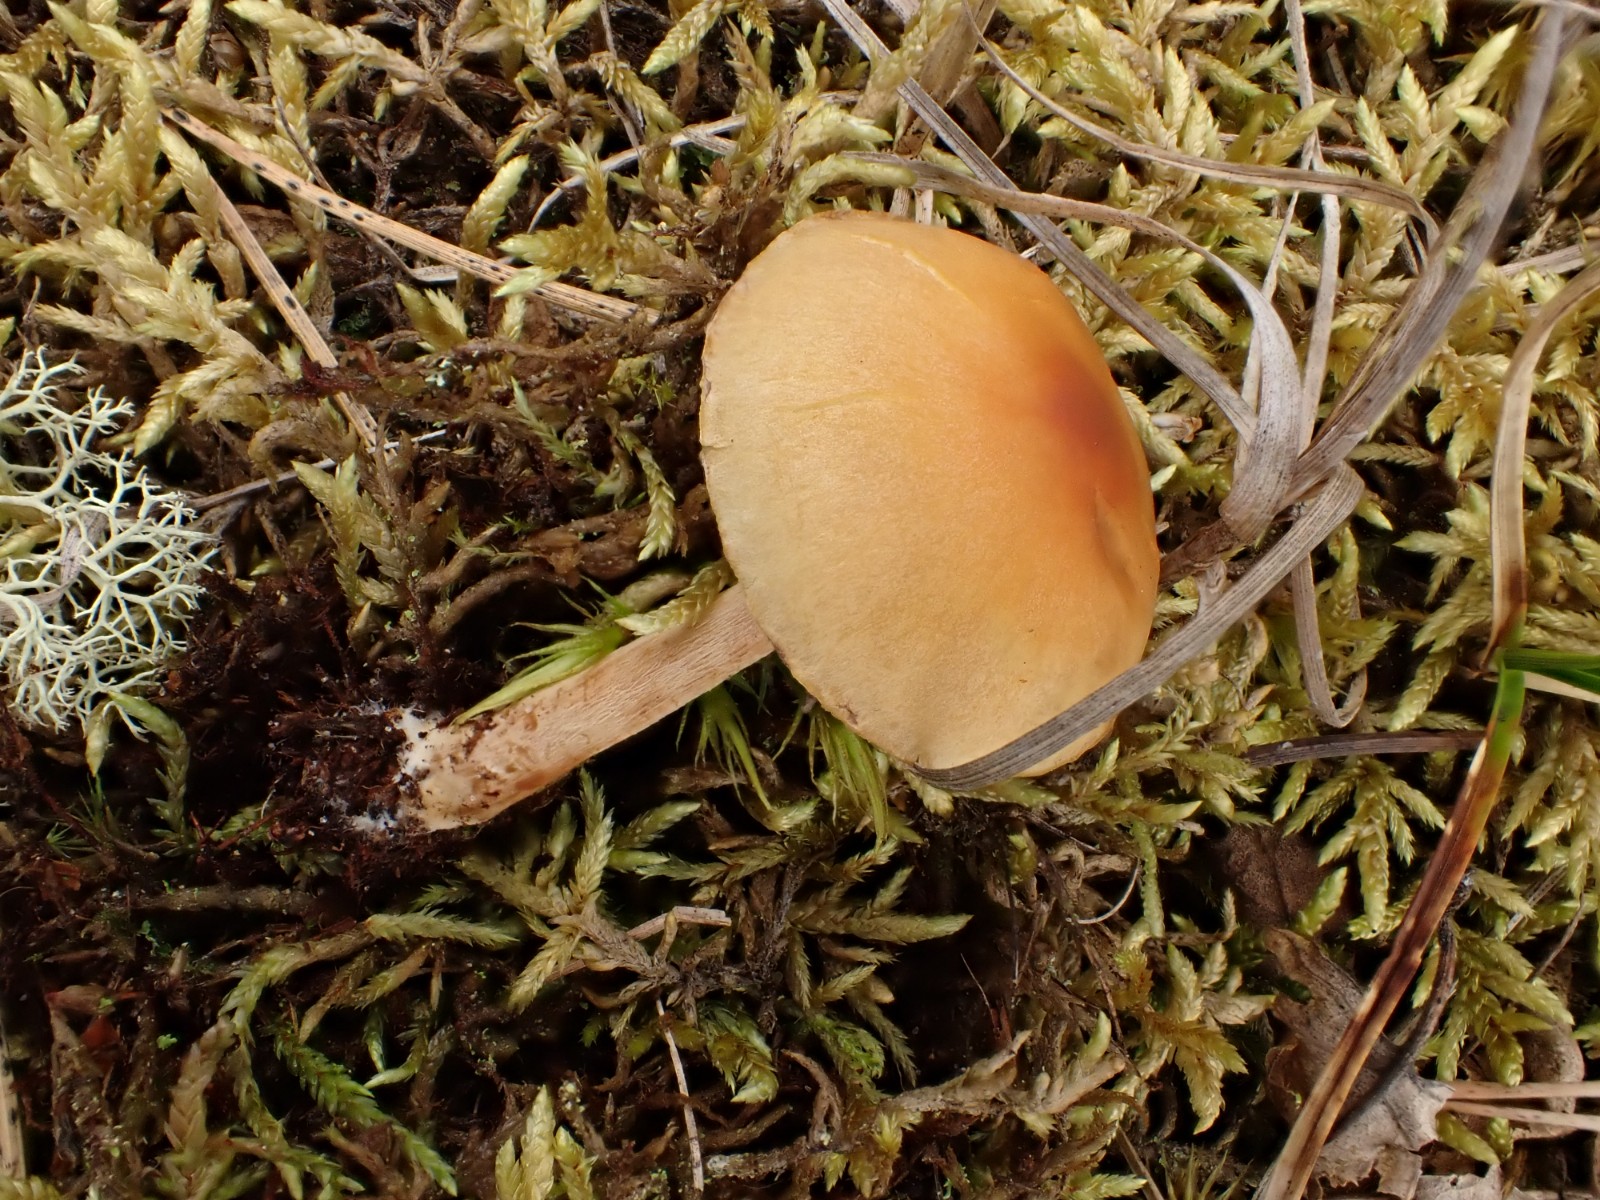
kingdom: Fungi
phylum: Basidiomycota
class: Agaricomycetes
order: Agaricales
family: Strophariaceae
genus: Hypholoma
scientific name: Hypholoma capnoides
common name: gran-svovlhat
